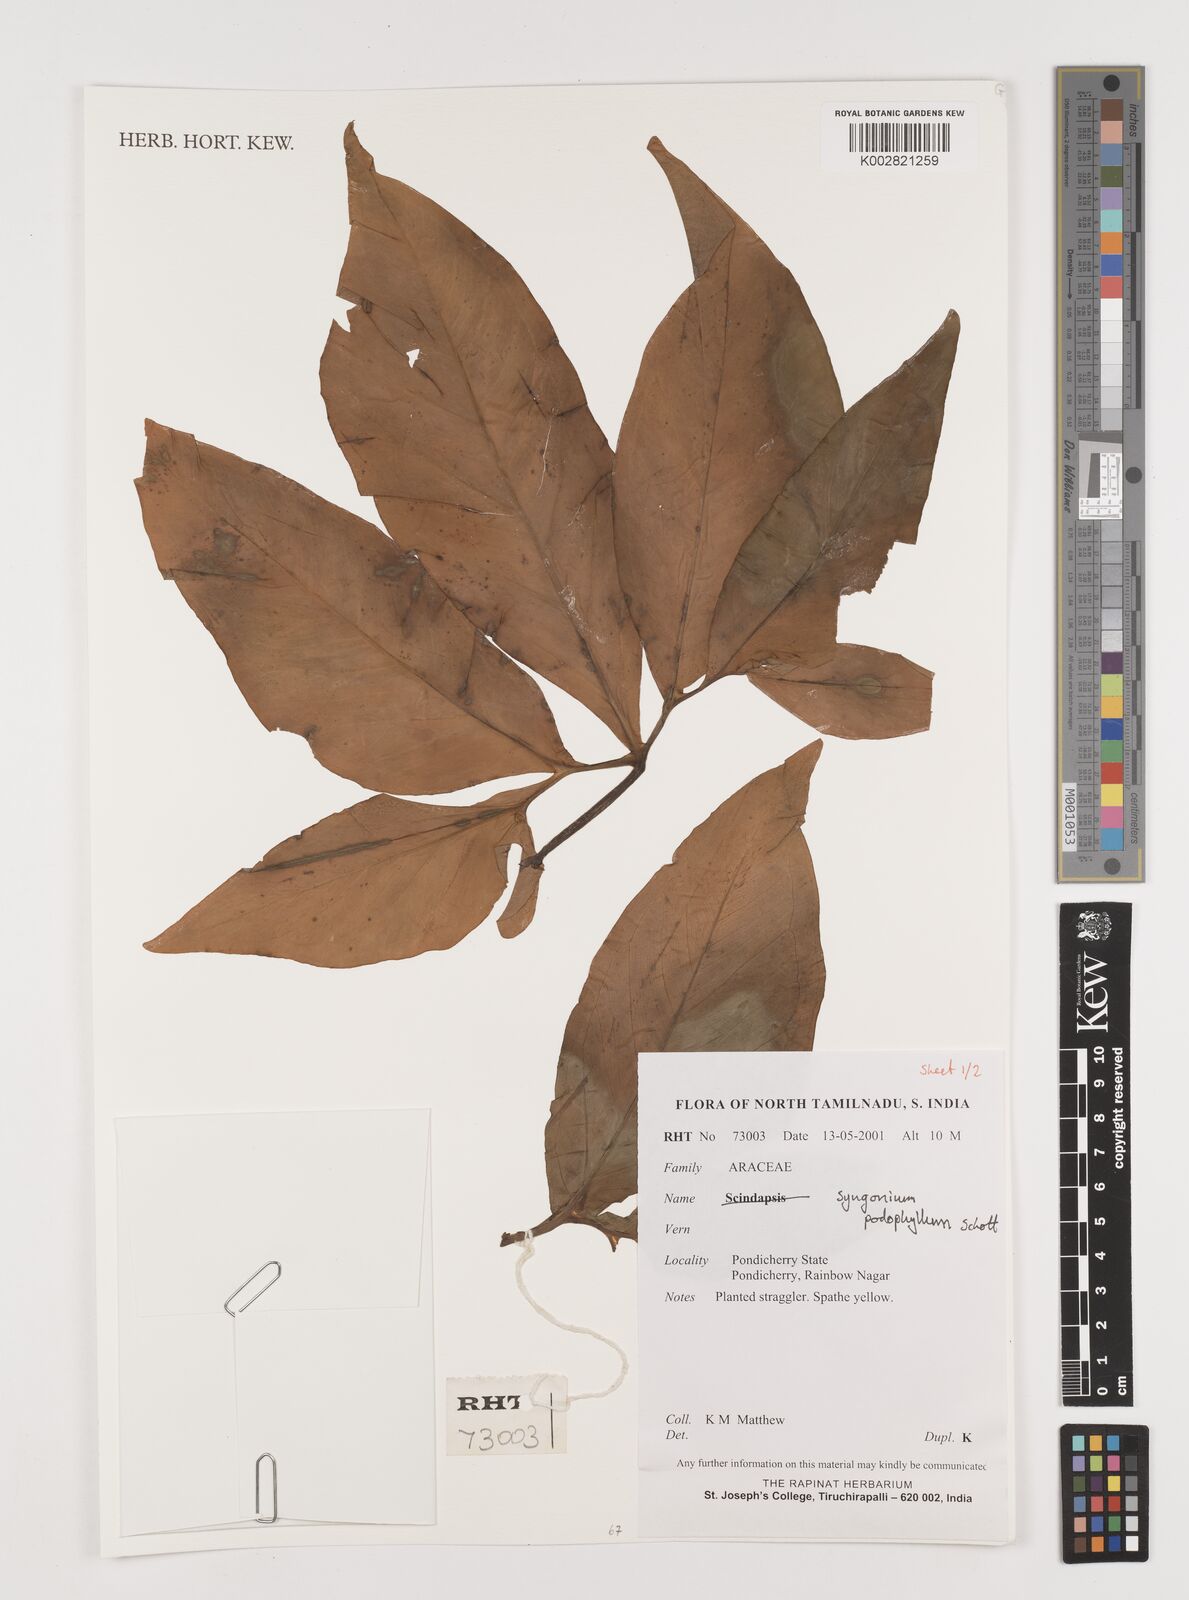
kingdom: Plantae
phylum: Tracheophyta
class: Liliopsida
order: Alismatales
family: Araceae
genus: Syngonium
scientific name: Syngonium podophyllum
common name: American evergreen
